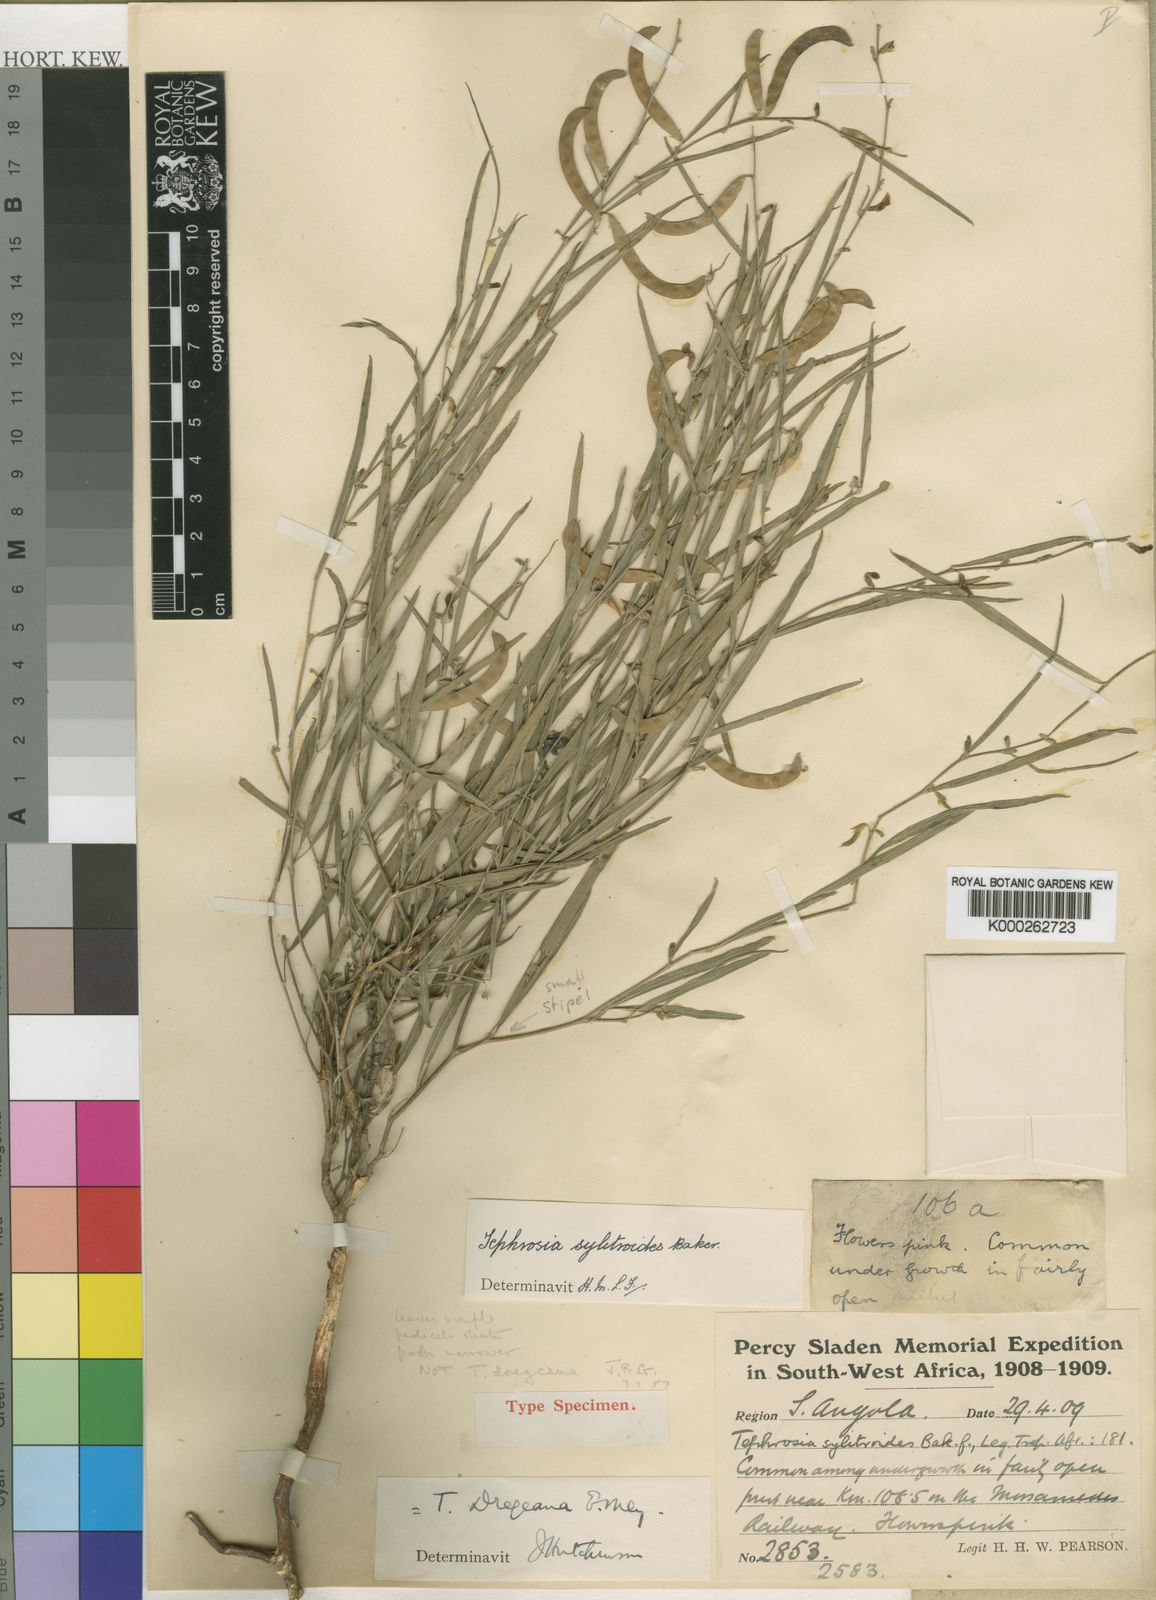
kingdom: Plantae
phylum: Tracheophyta
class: Magnoliopsida
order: Fabales
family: Fabaceae
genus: Tephrosia
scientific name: Tephrosia sylitroides
